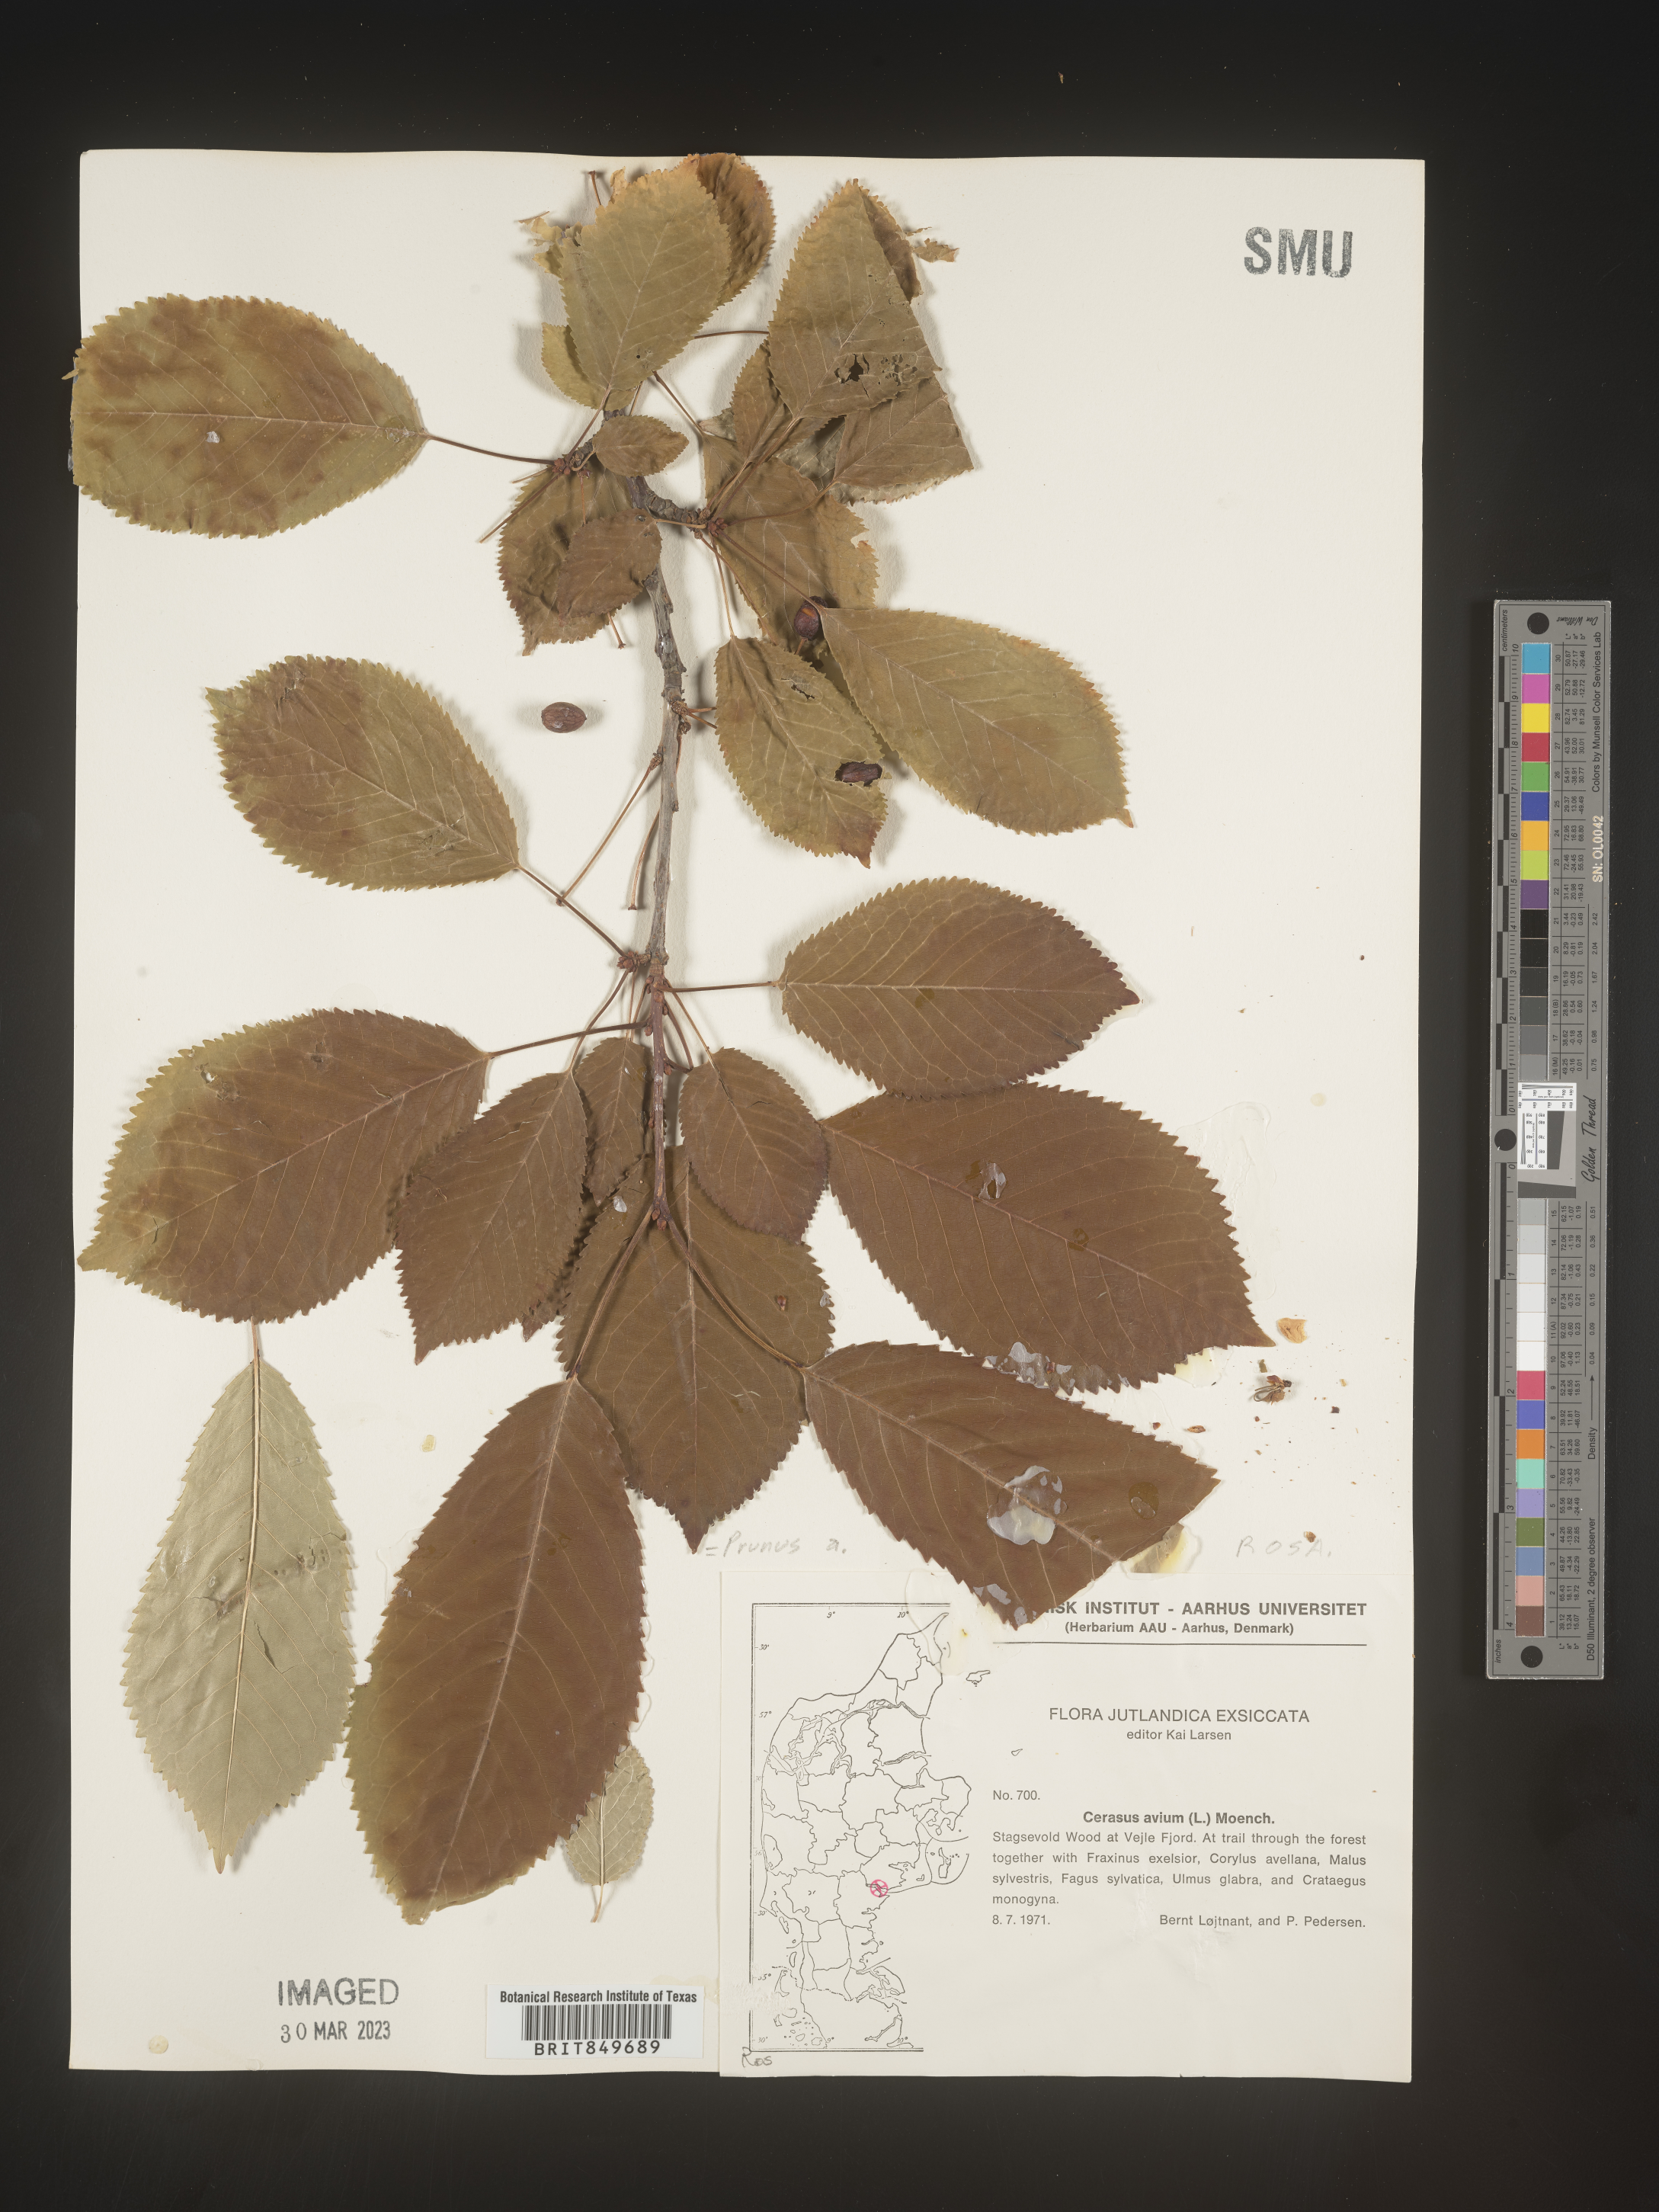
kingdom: Plantae
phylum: Tracheophyta
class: Magnoliopsida
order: Rosales
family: Rosaceae
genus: Prunus
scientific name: Prunus
